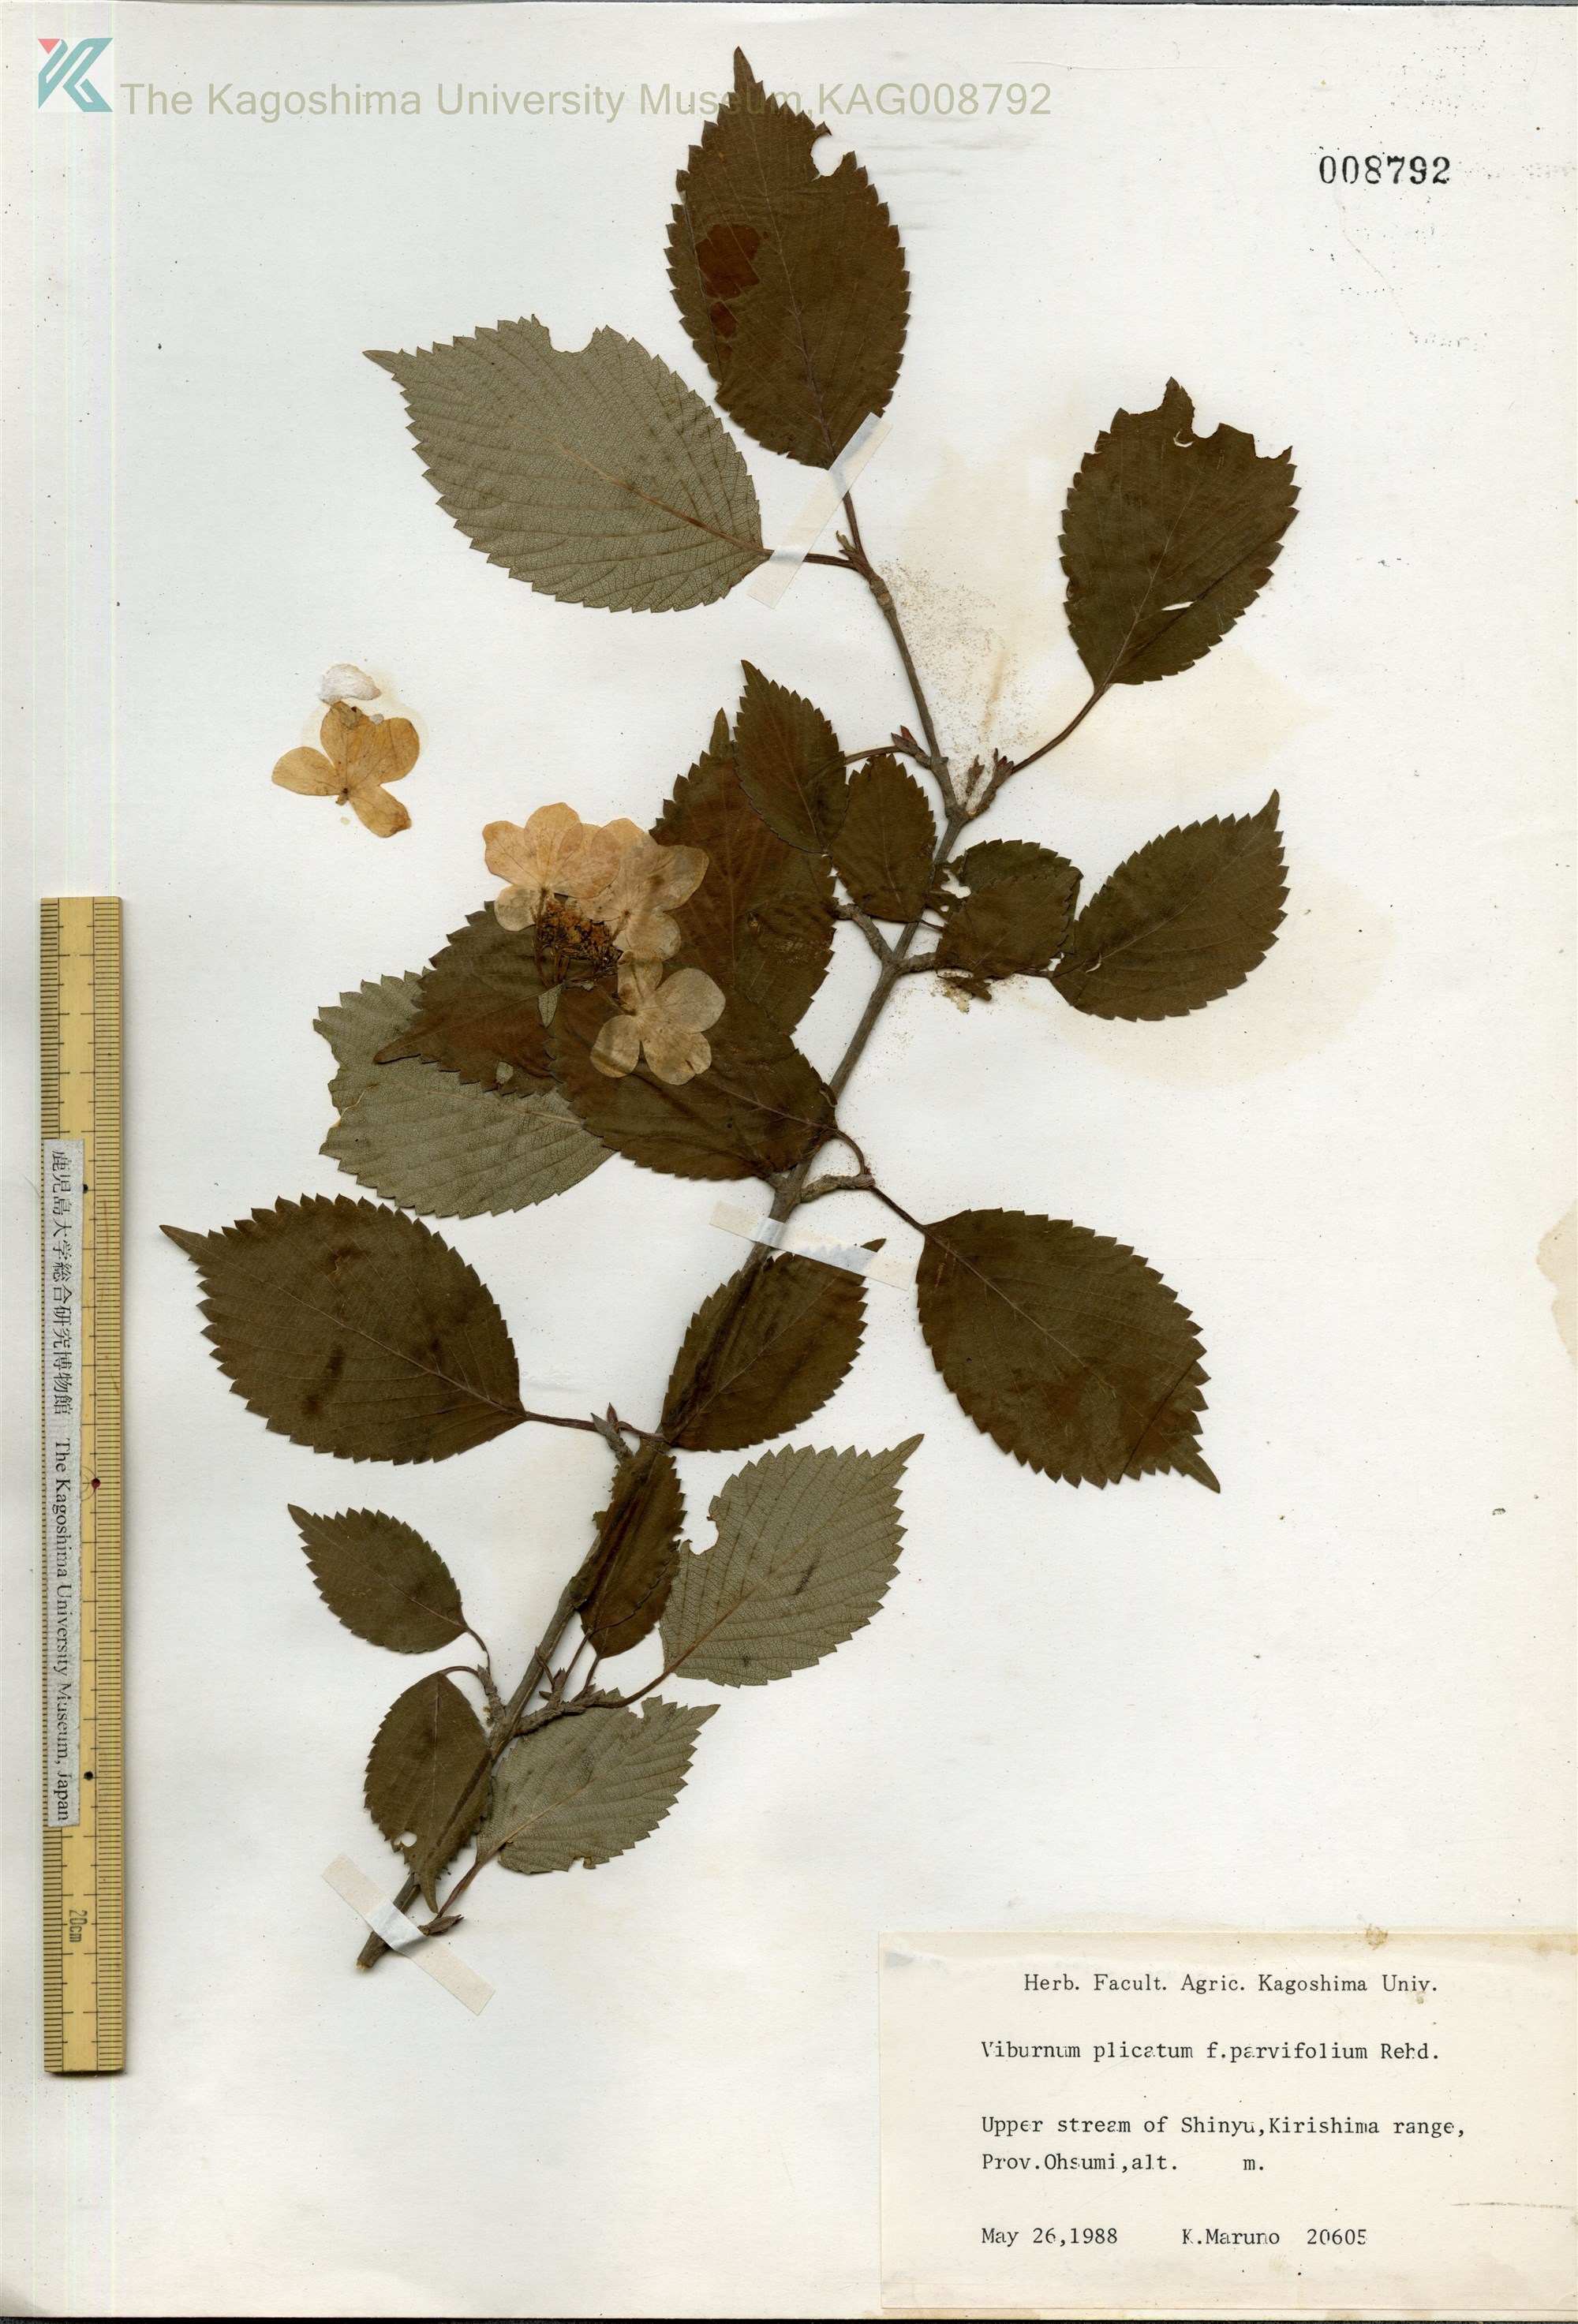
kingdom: Plantae
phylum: Tracheophyta
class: Magnoliopsida
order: Dipsacales
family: Viburnaceae
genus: Viburnum
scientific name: Viburnum plicatum
